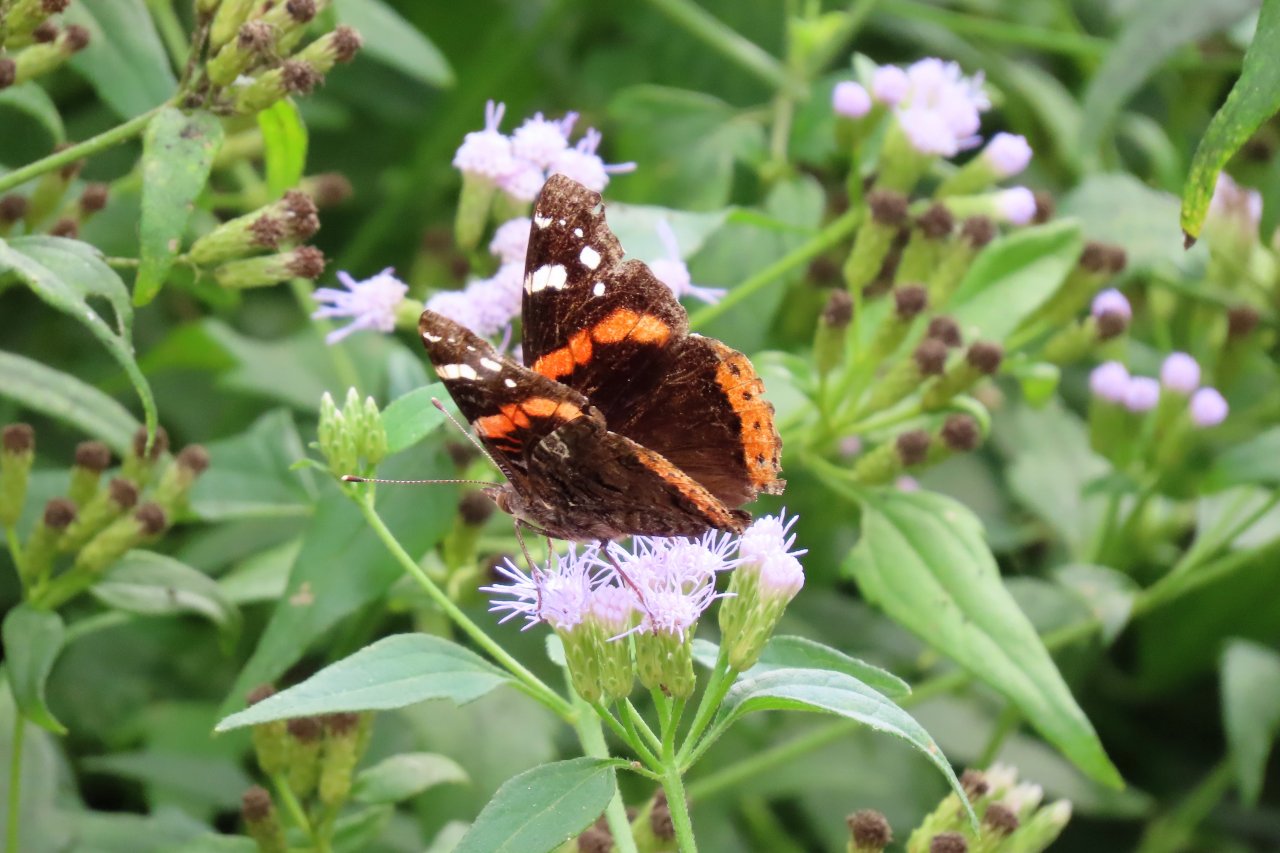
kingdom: Animalia
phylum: Arthropoda
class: Insecta
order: Lepidoptera
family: Nymphalidae
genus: Vanessa
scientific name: Vanessa atalanta
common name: Red Admiral
